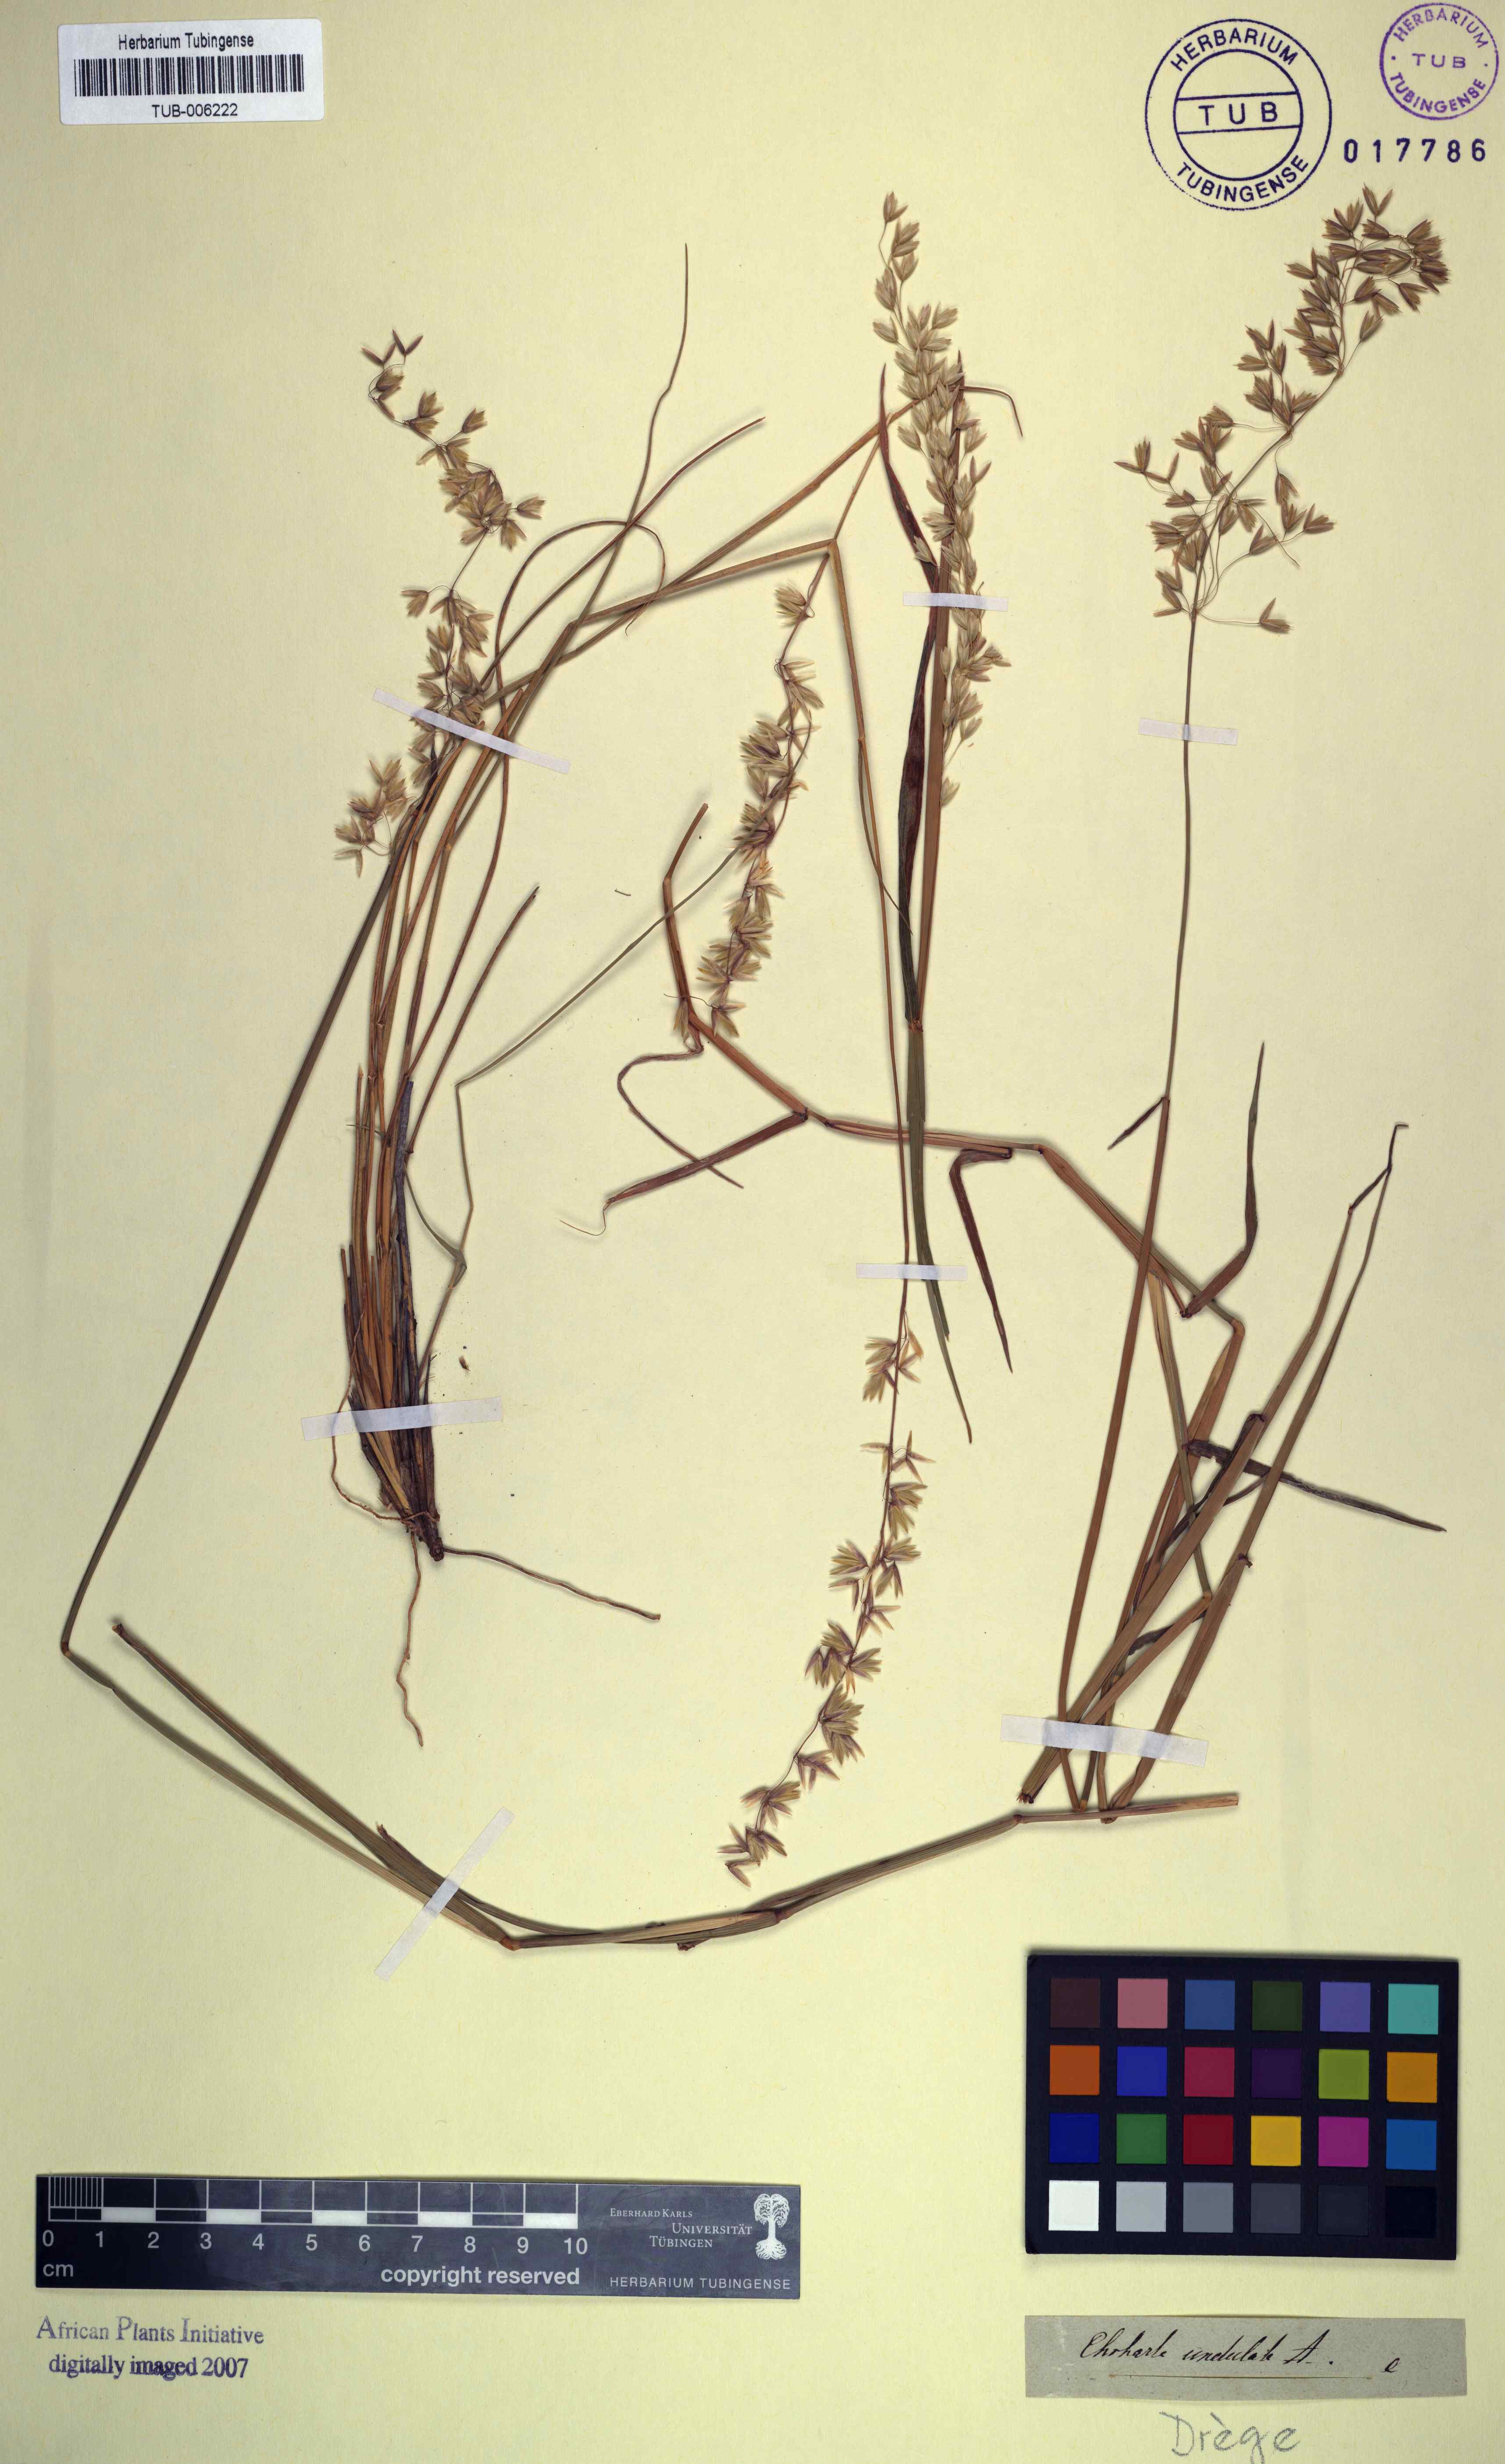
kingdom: Plantae
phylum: Tracheophyta
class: Liliopsida
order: Poales
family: Poaceae
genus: Ehrharta
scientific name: Ehrharta calycina
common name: Perennial veldtgrass
